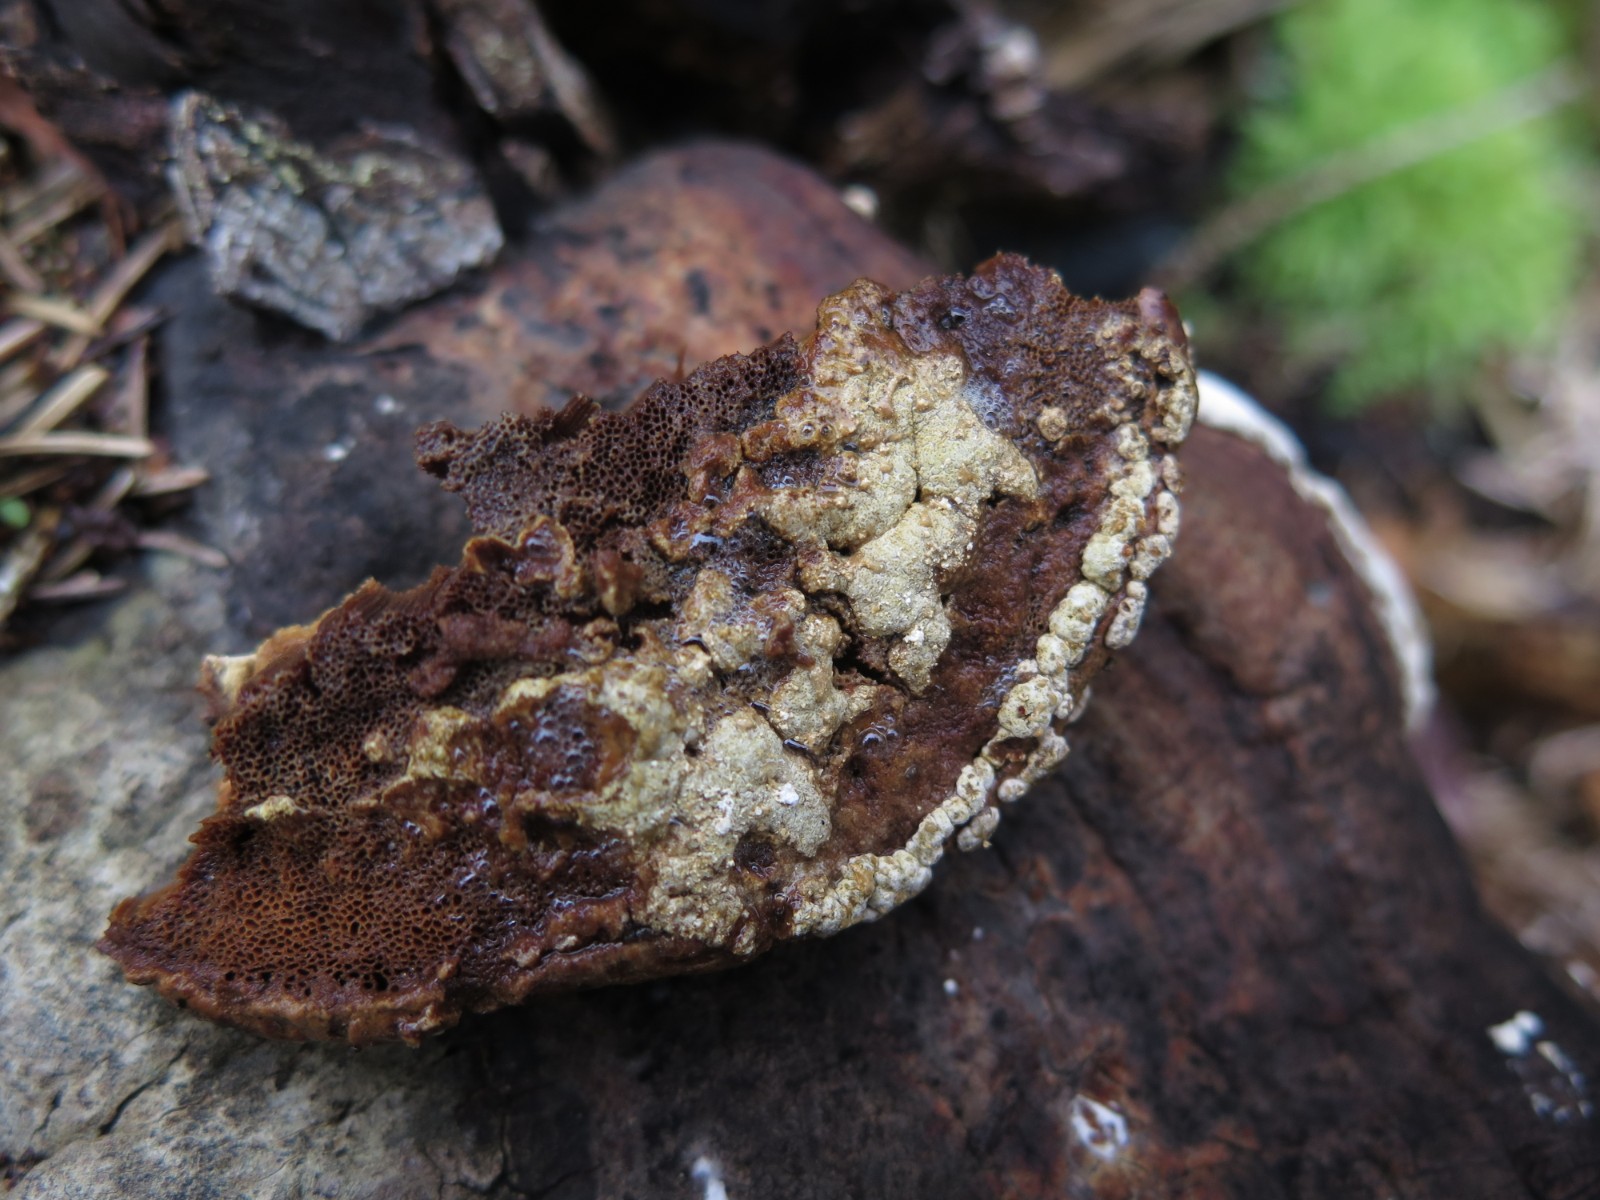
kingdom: Fungi
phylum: Ascomycota
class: Sordariomycetes
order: Hypocreales
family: Hypocreaceae
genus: Trichoderma
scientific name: Trichoderma pulvinatum
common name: snyltende kødkerne
